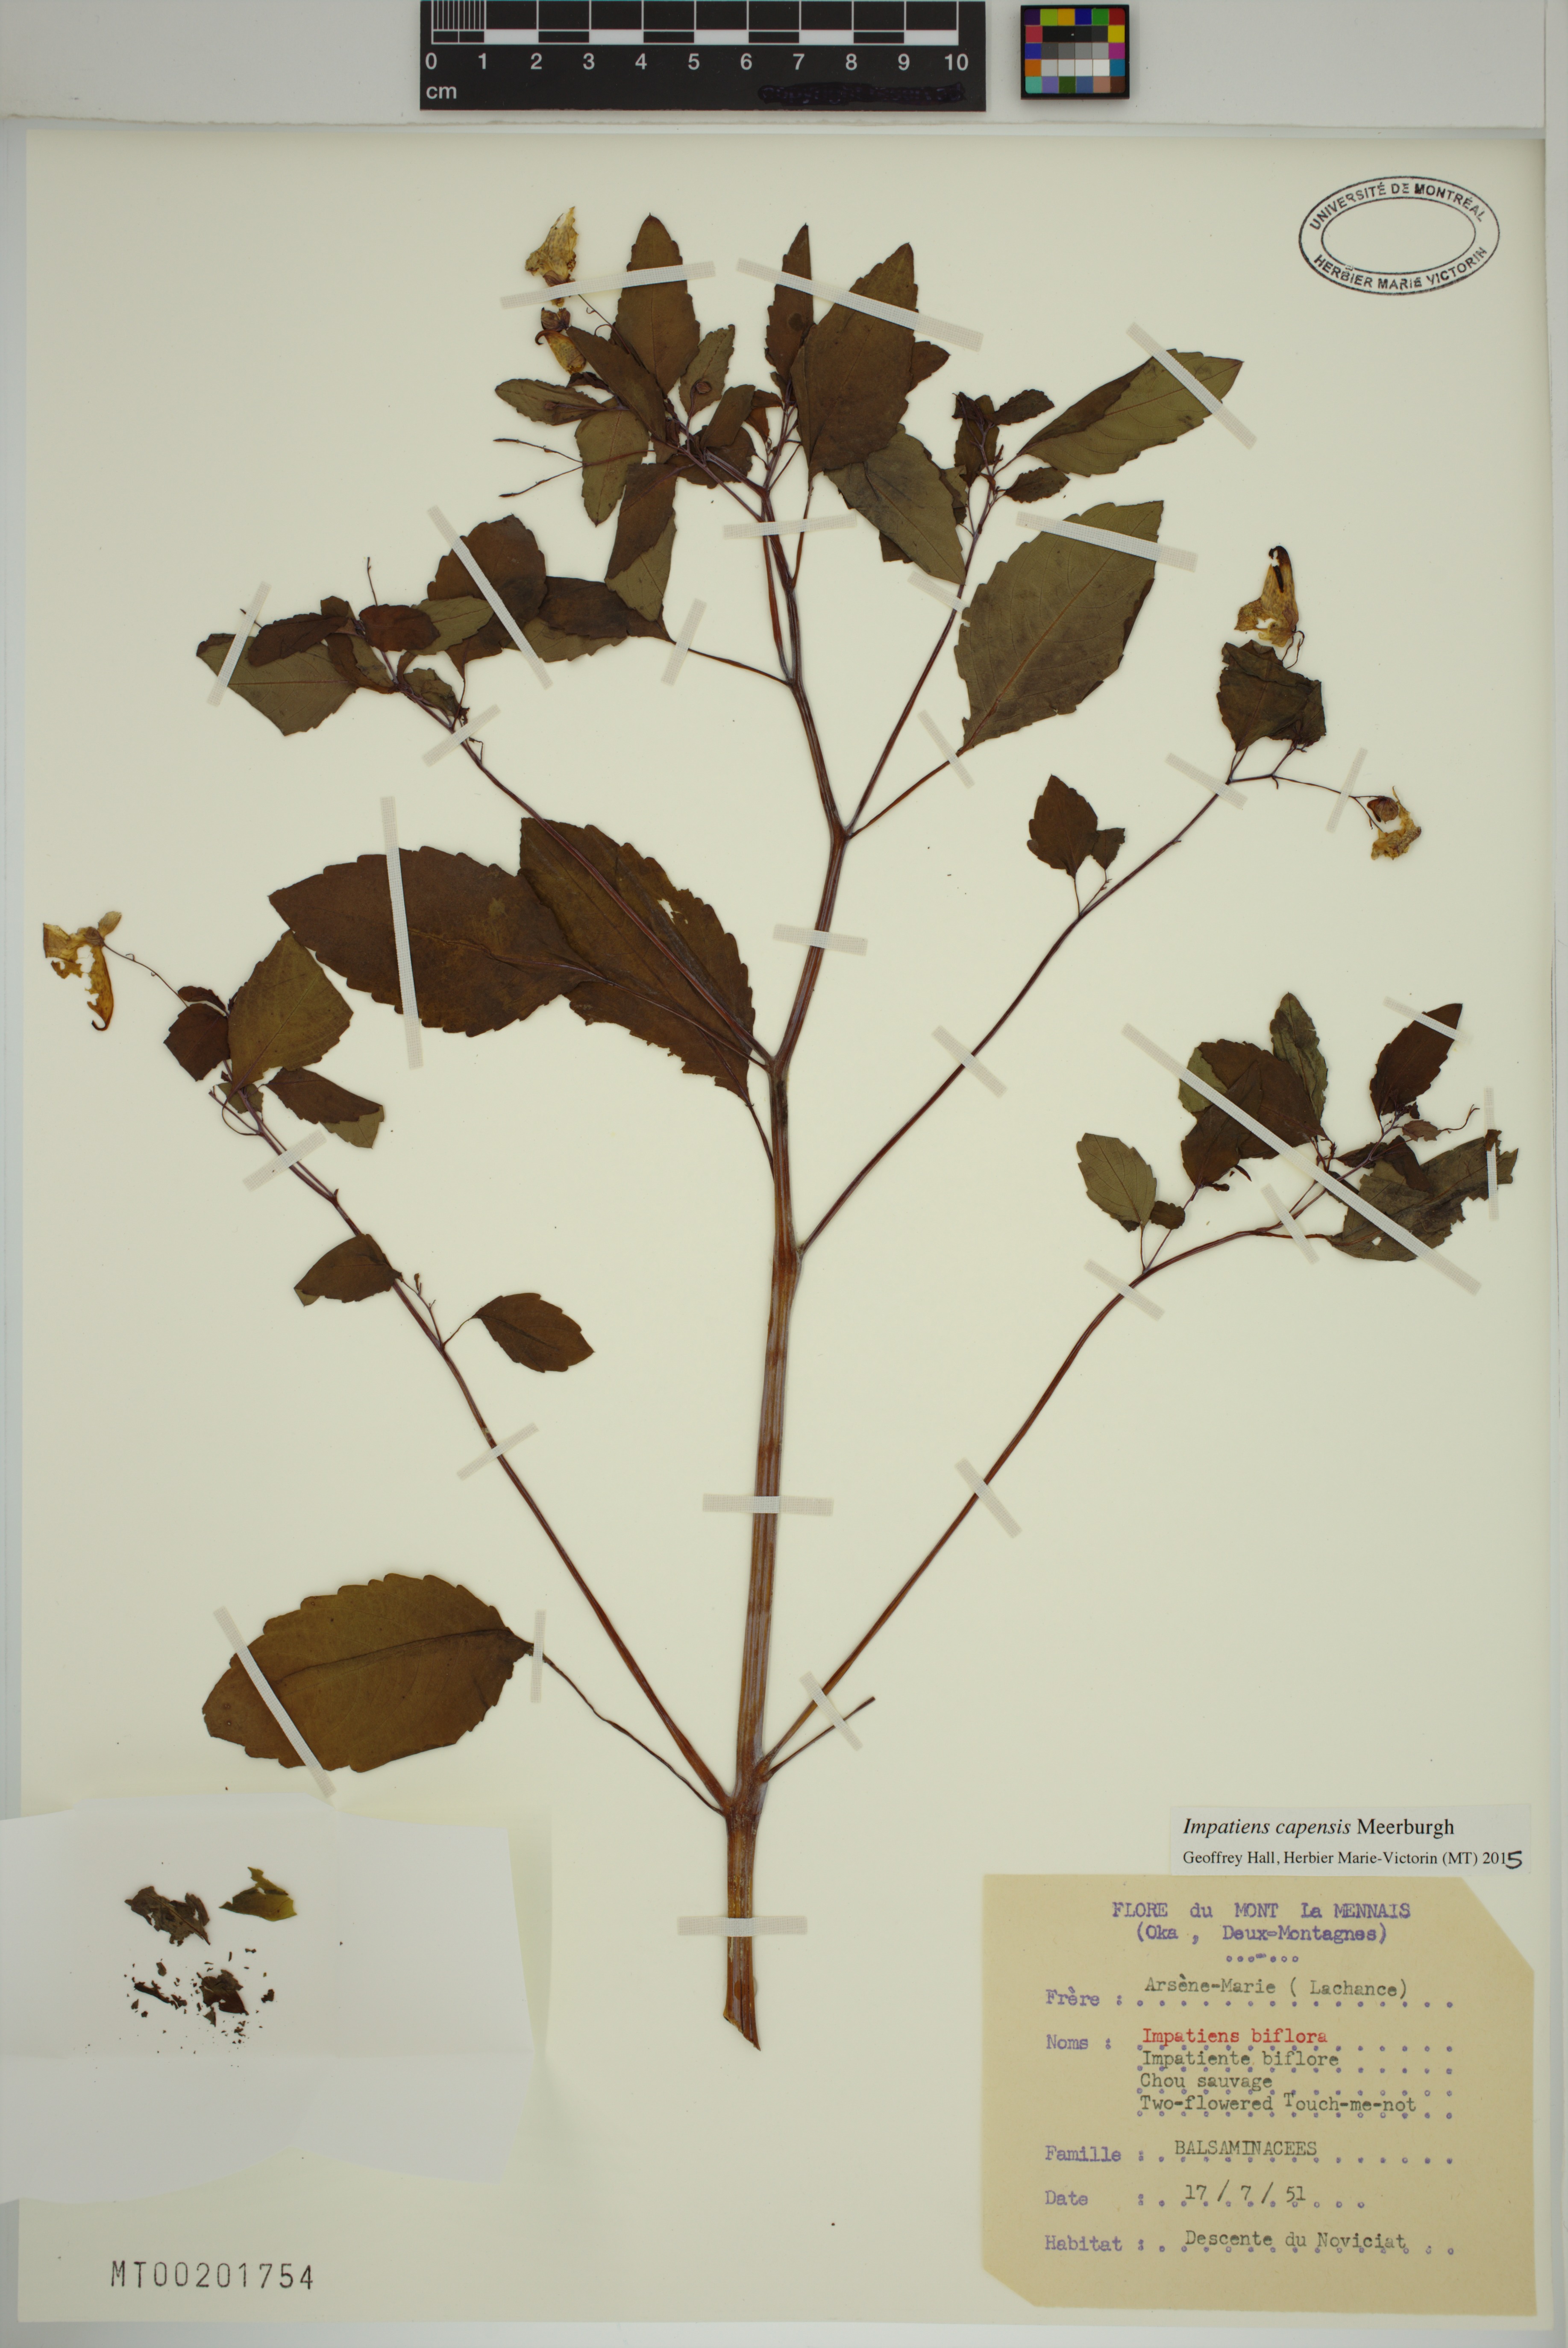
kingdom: Plantae
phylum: Tracheophyta
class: Magnoliopsida
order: Ericales
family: Balsaminaceae
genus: Impatiens
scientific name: Impatiens capensis
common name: Orange balsam
